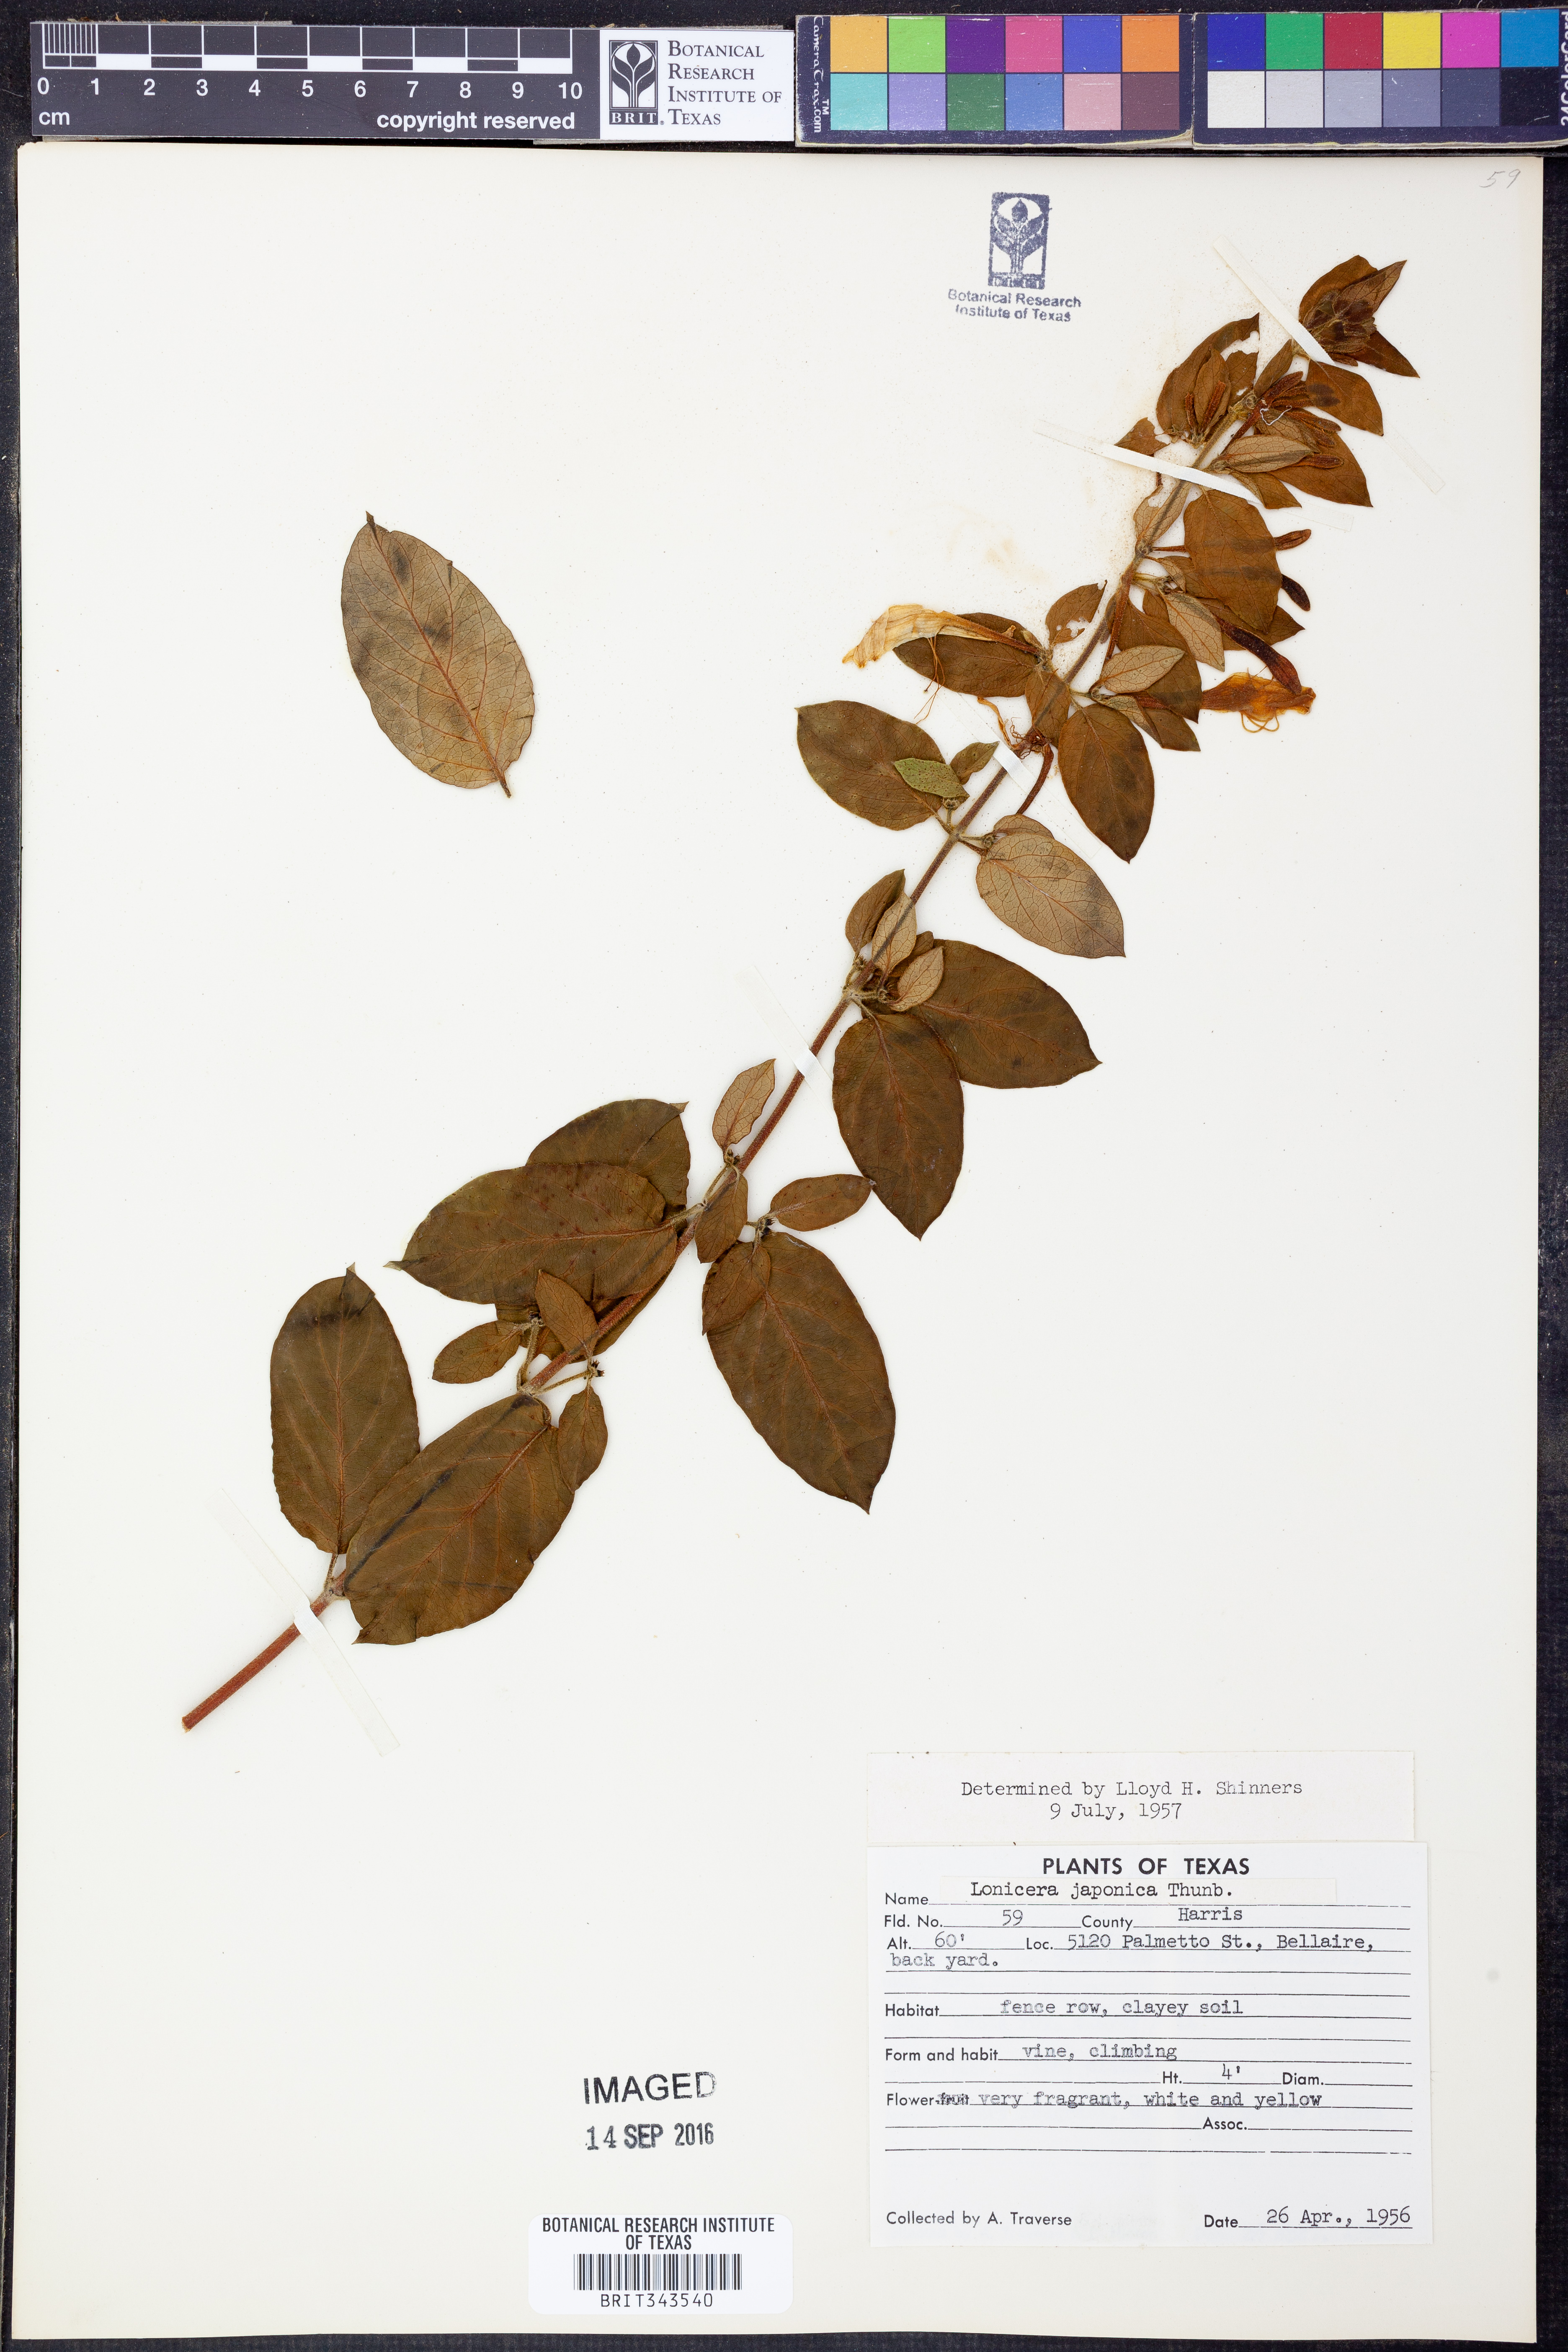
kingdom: Plantae
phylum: Tracheophyta
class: Magnoliopsida
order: Dipsacales
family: Caprifoliaceae
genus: Lonicera
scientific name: Lonicera japonica
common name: Japanese honeysuckle
